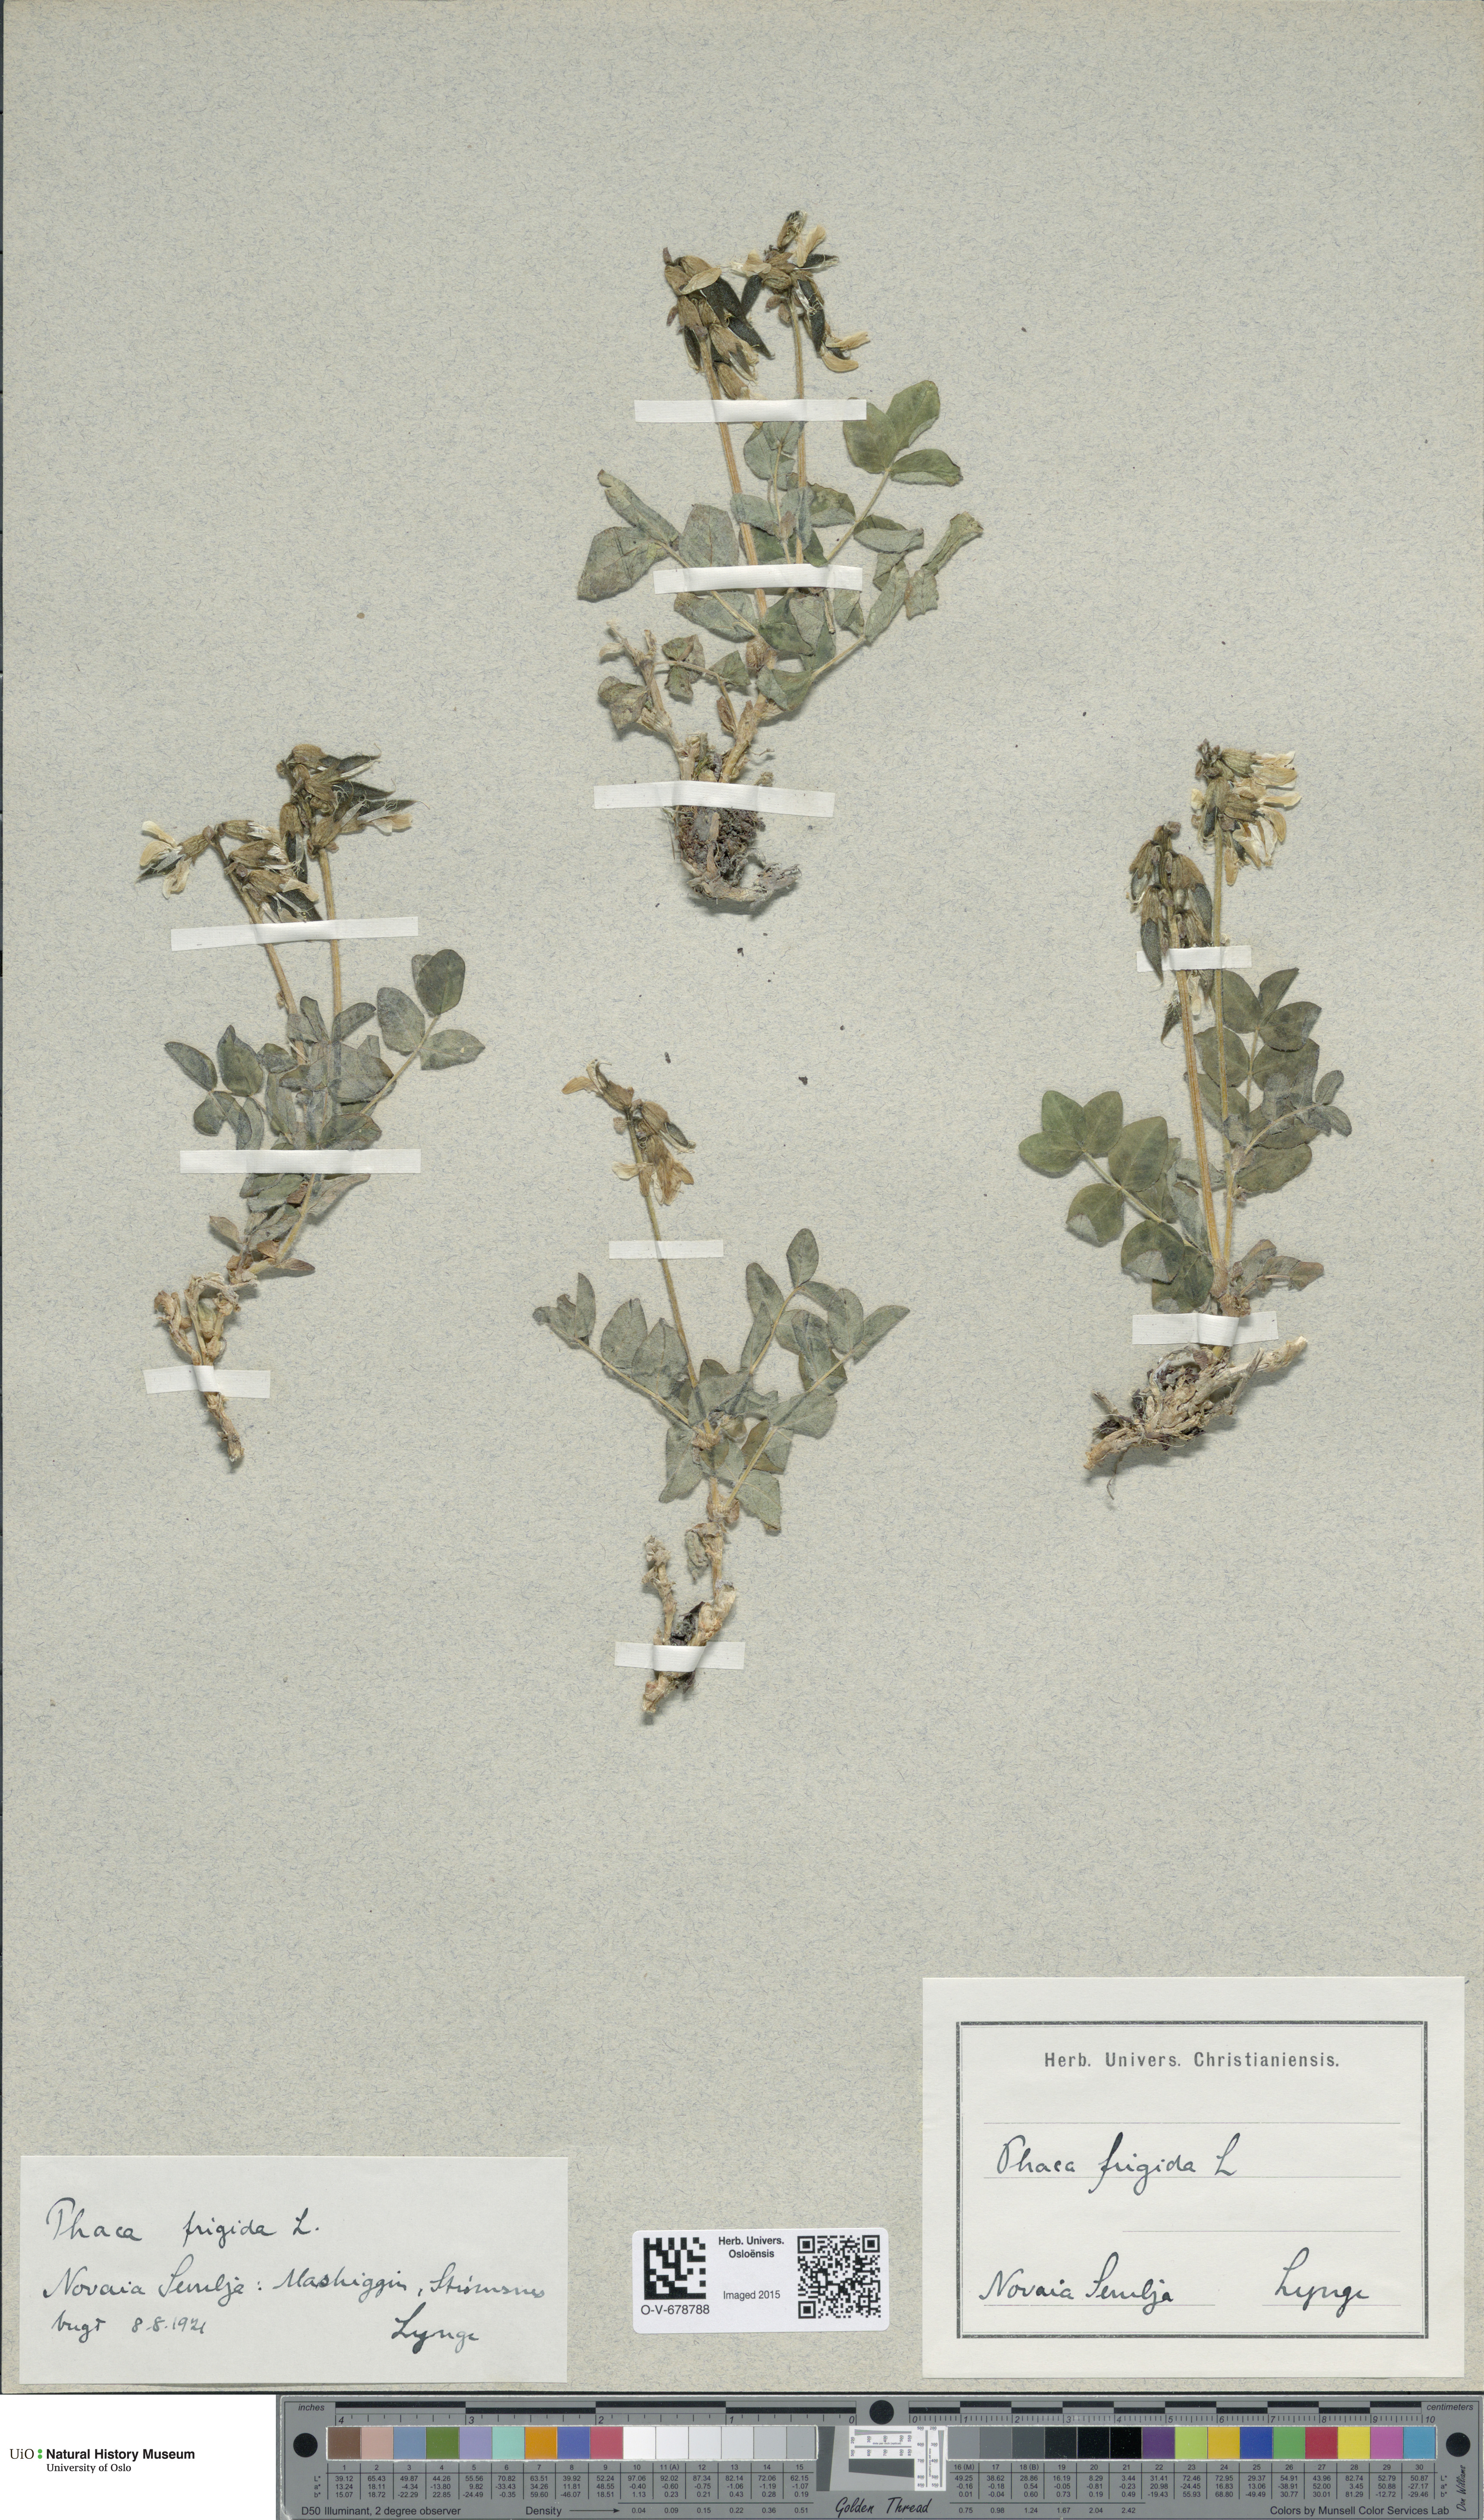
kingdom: Plantae
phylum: Tracheophyta
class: Magnoliopsida
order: Fabales
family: Fabaceae
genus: Astragalus
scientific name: Astragalus frigidus
